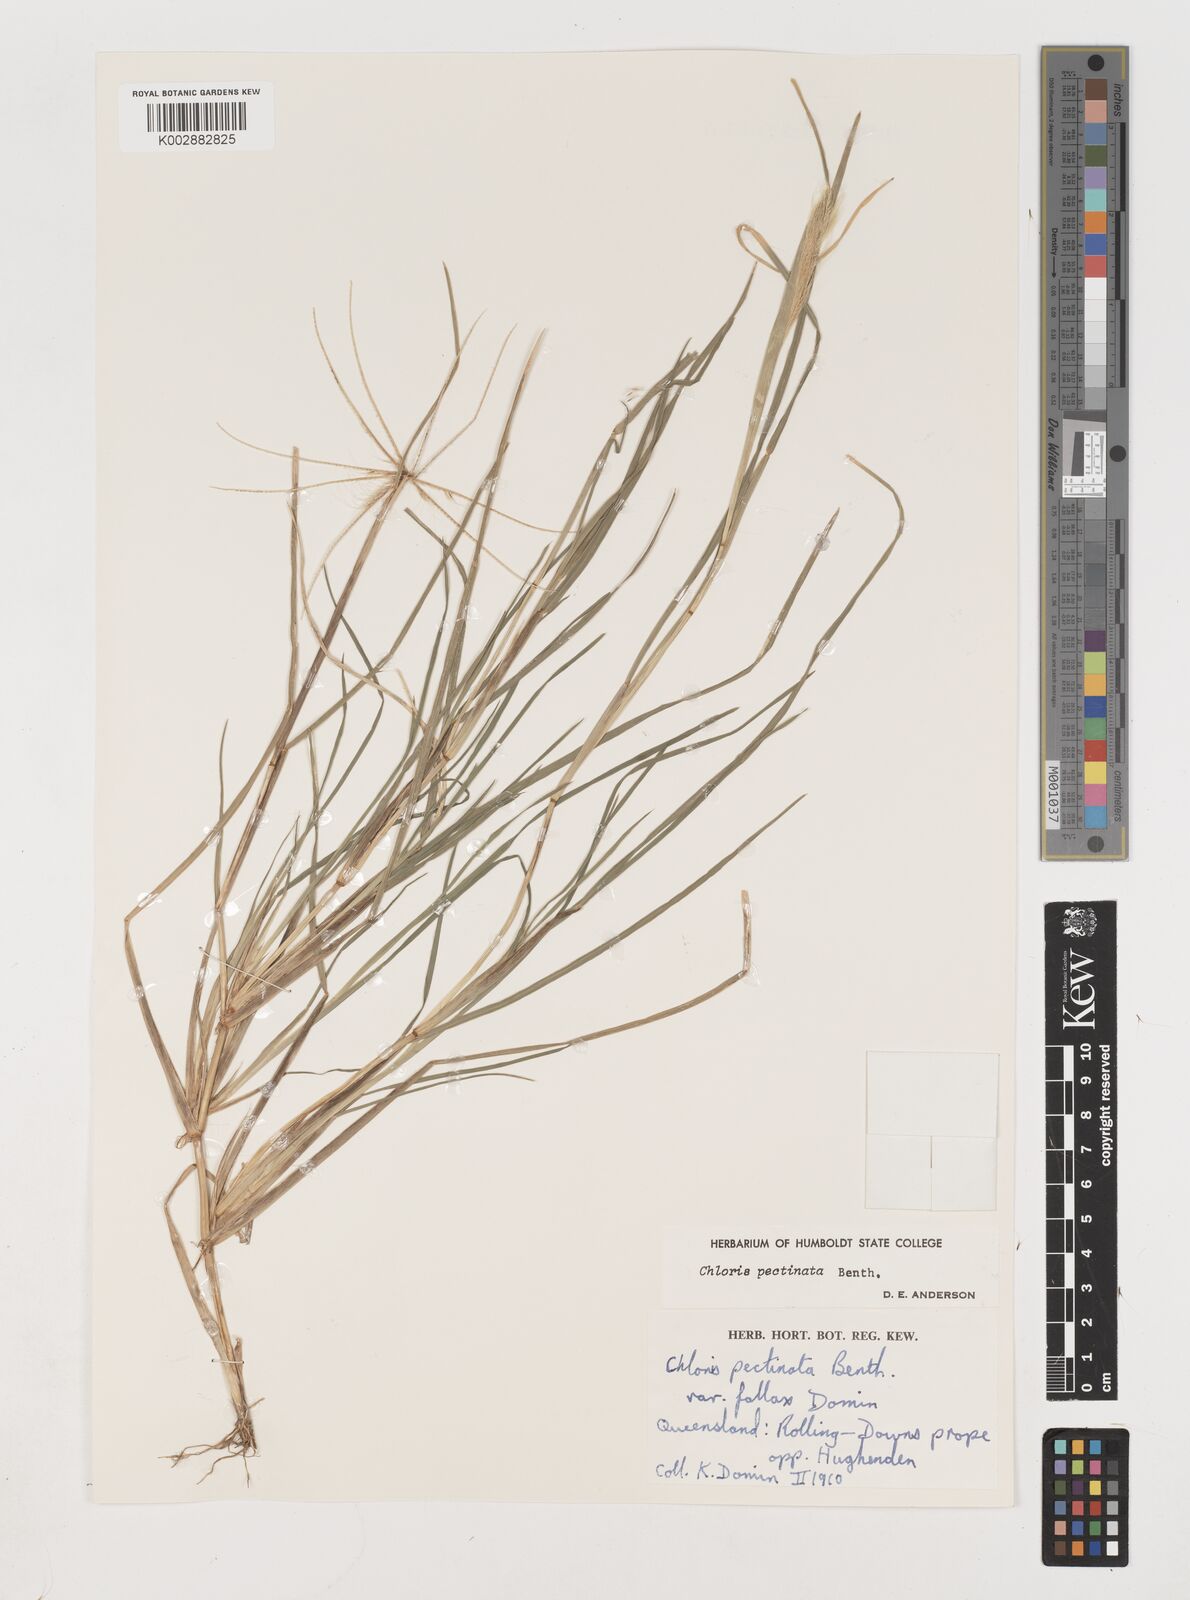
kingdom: Plantae
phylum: Tracheophyta
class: Liliopsida
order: Poales
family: Poaceae
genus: Chloris
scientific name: Chloris pectinata
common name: Comb windmill grass
